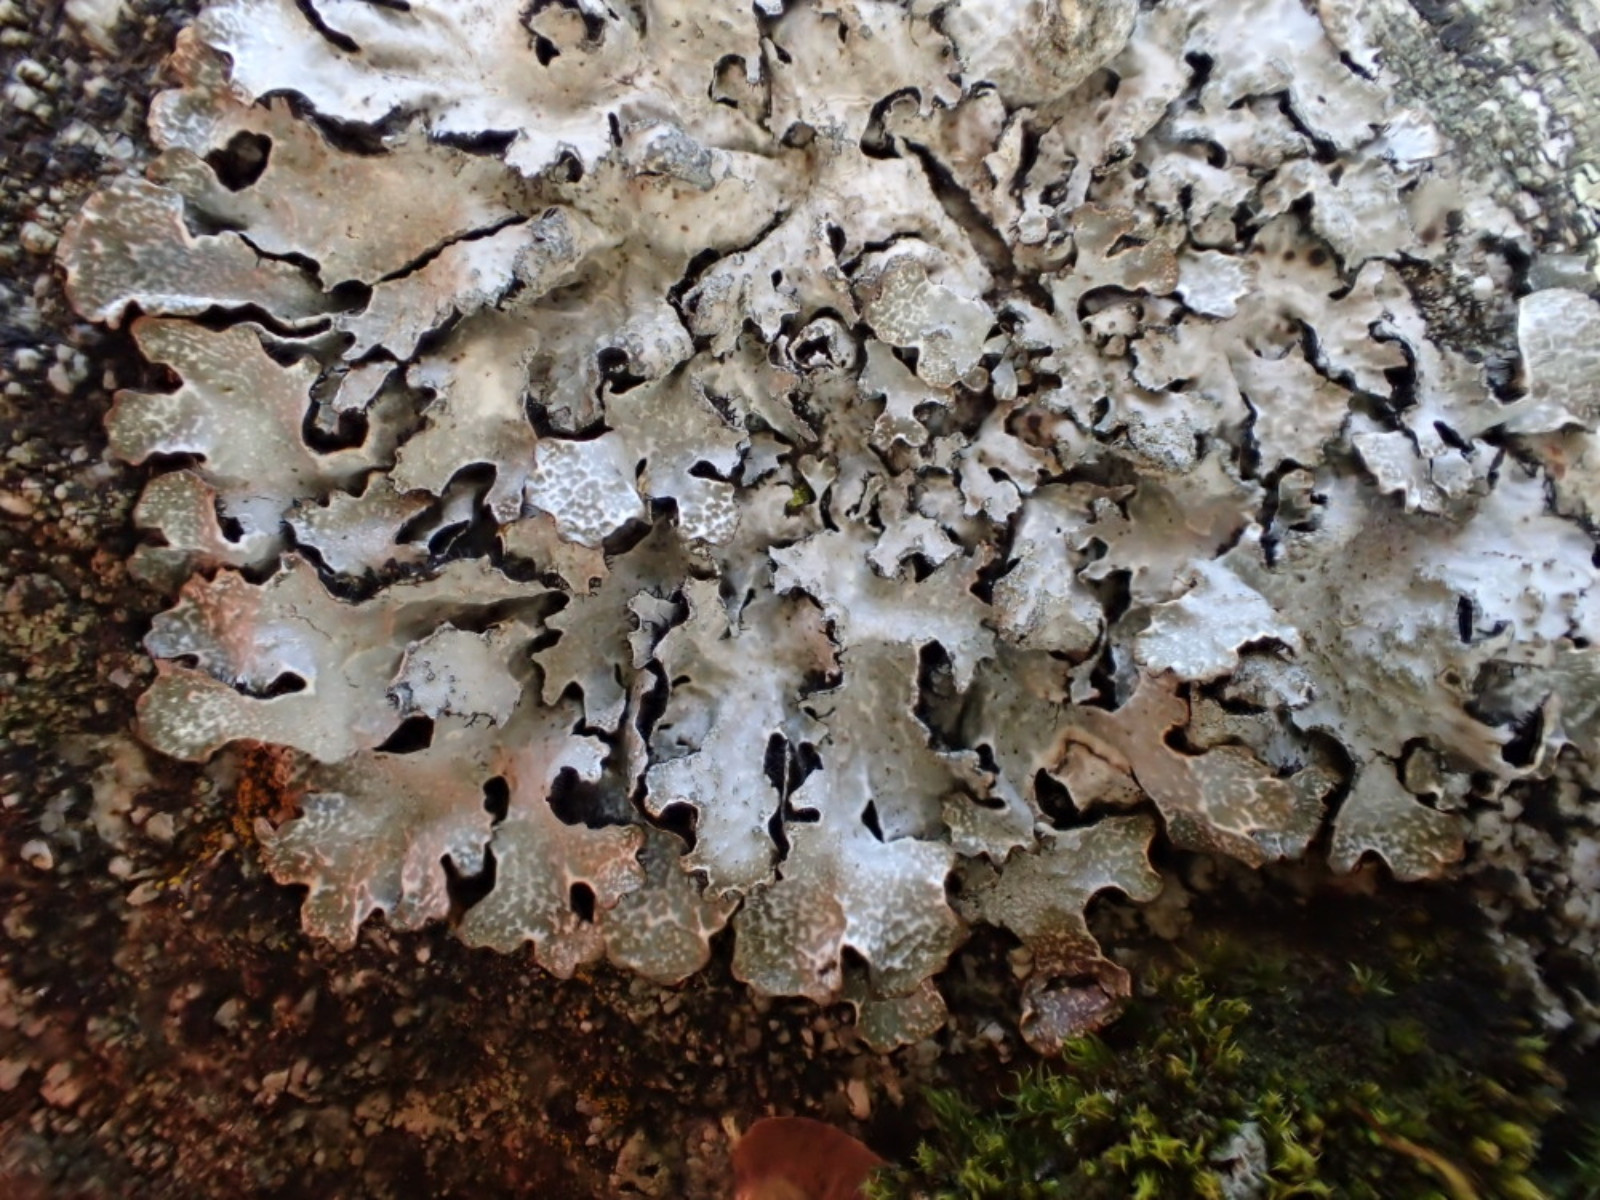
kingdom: Fungi
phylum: Ascomycota
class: Lecanoromycetes
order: Lecanorales
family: Parmeliaceae
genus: Parmelia
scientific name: Parmelia saxatilis
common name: farve-skållav
